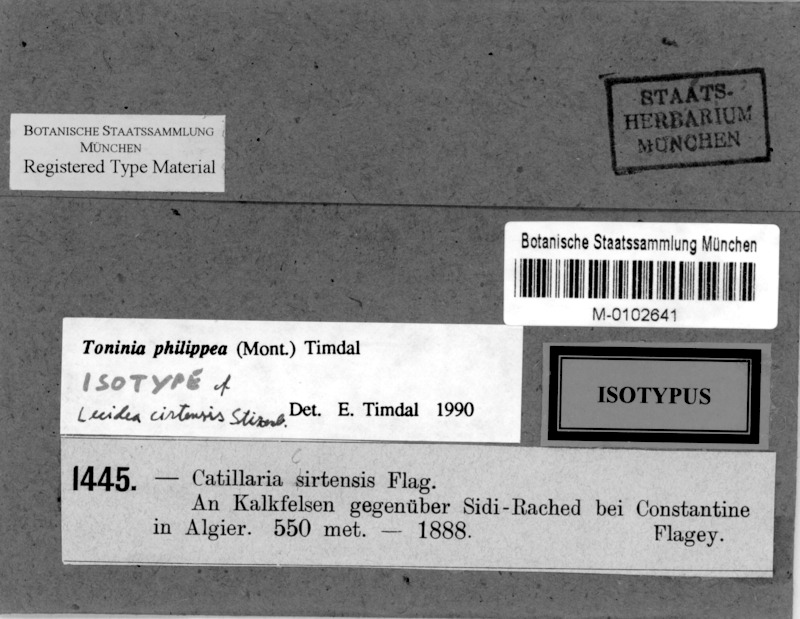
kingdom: Fungi
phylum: Ascomycota
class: Lecanoromycetes
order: Lecanorales
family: Ramalinaceae
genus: Kiliasia
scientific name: Kiliasia philippea
